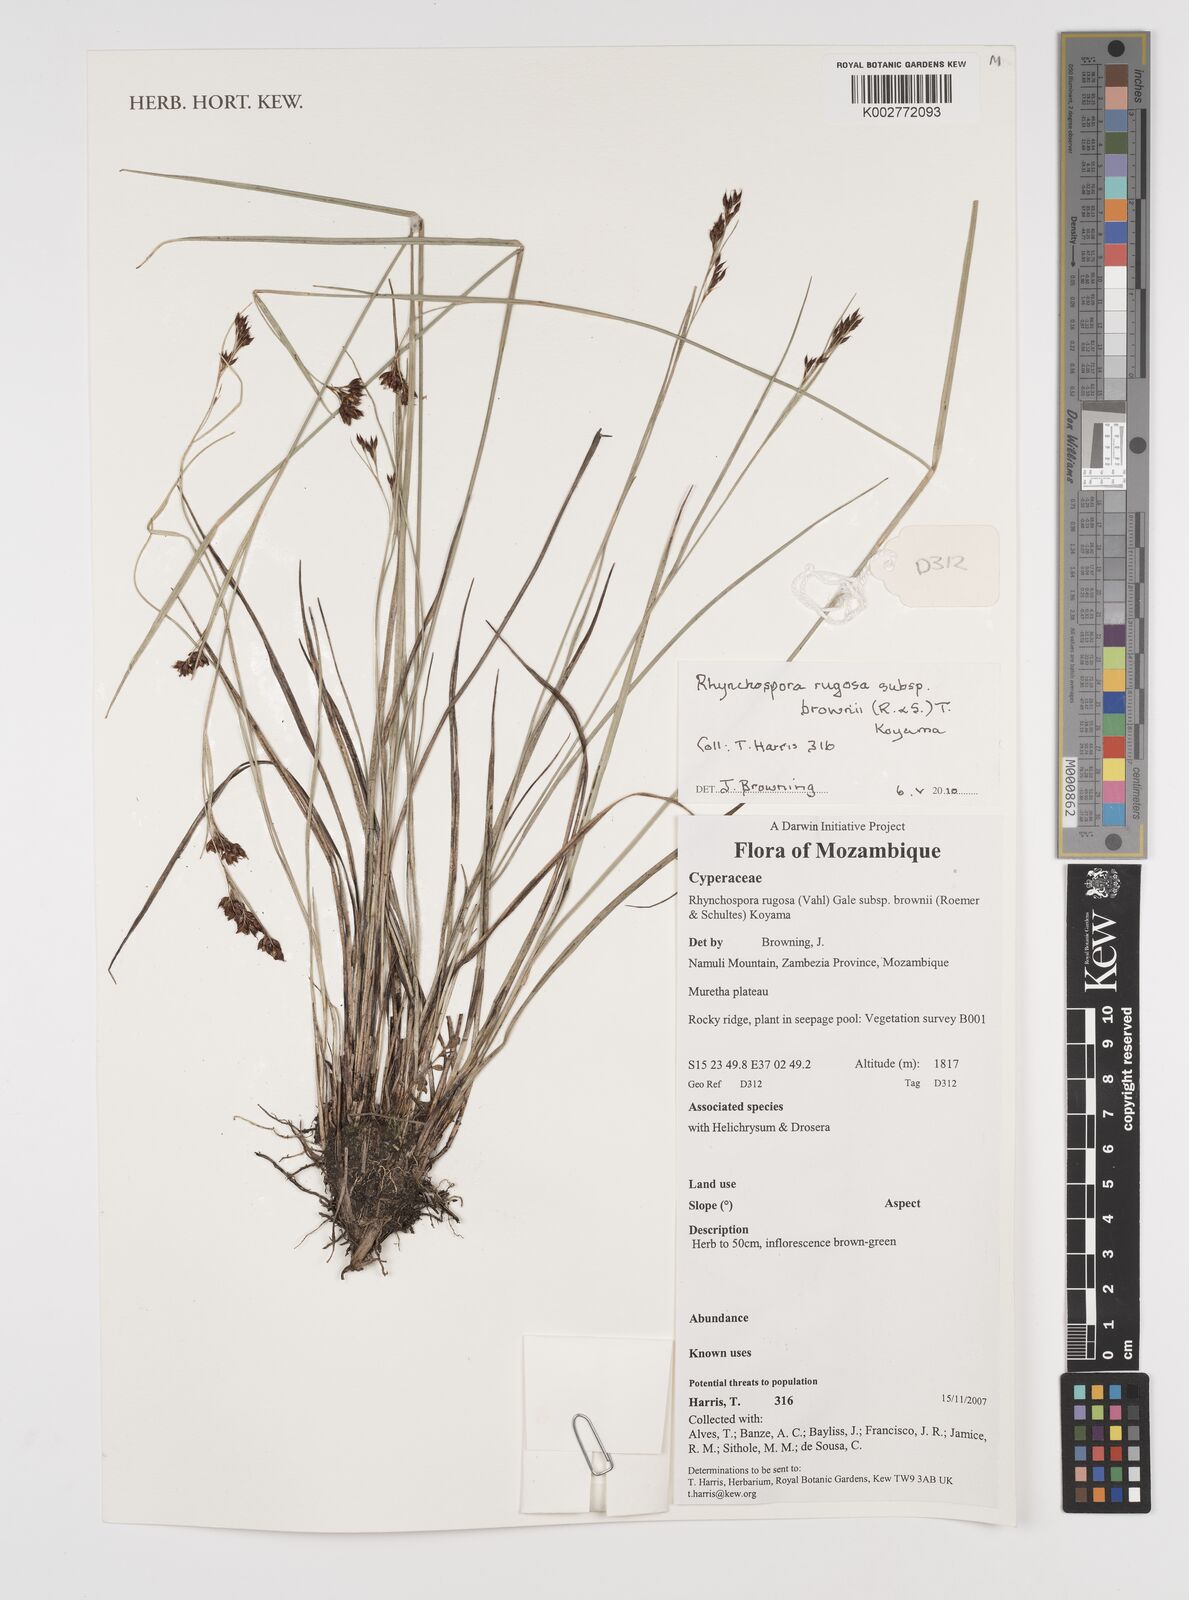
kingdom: Plantae
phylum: Tracheophyta
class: Liliopsida
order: Poales
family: Cyperaceae
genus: Rhynchospora
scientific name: Rhynchospora rugosa
